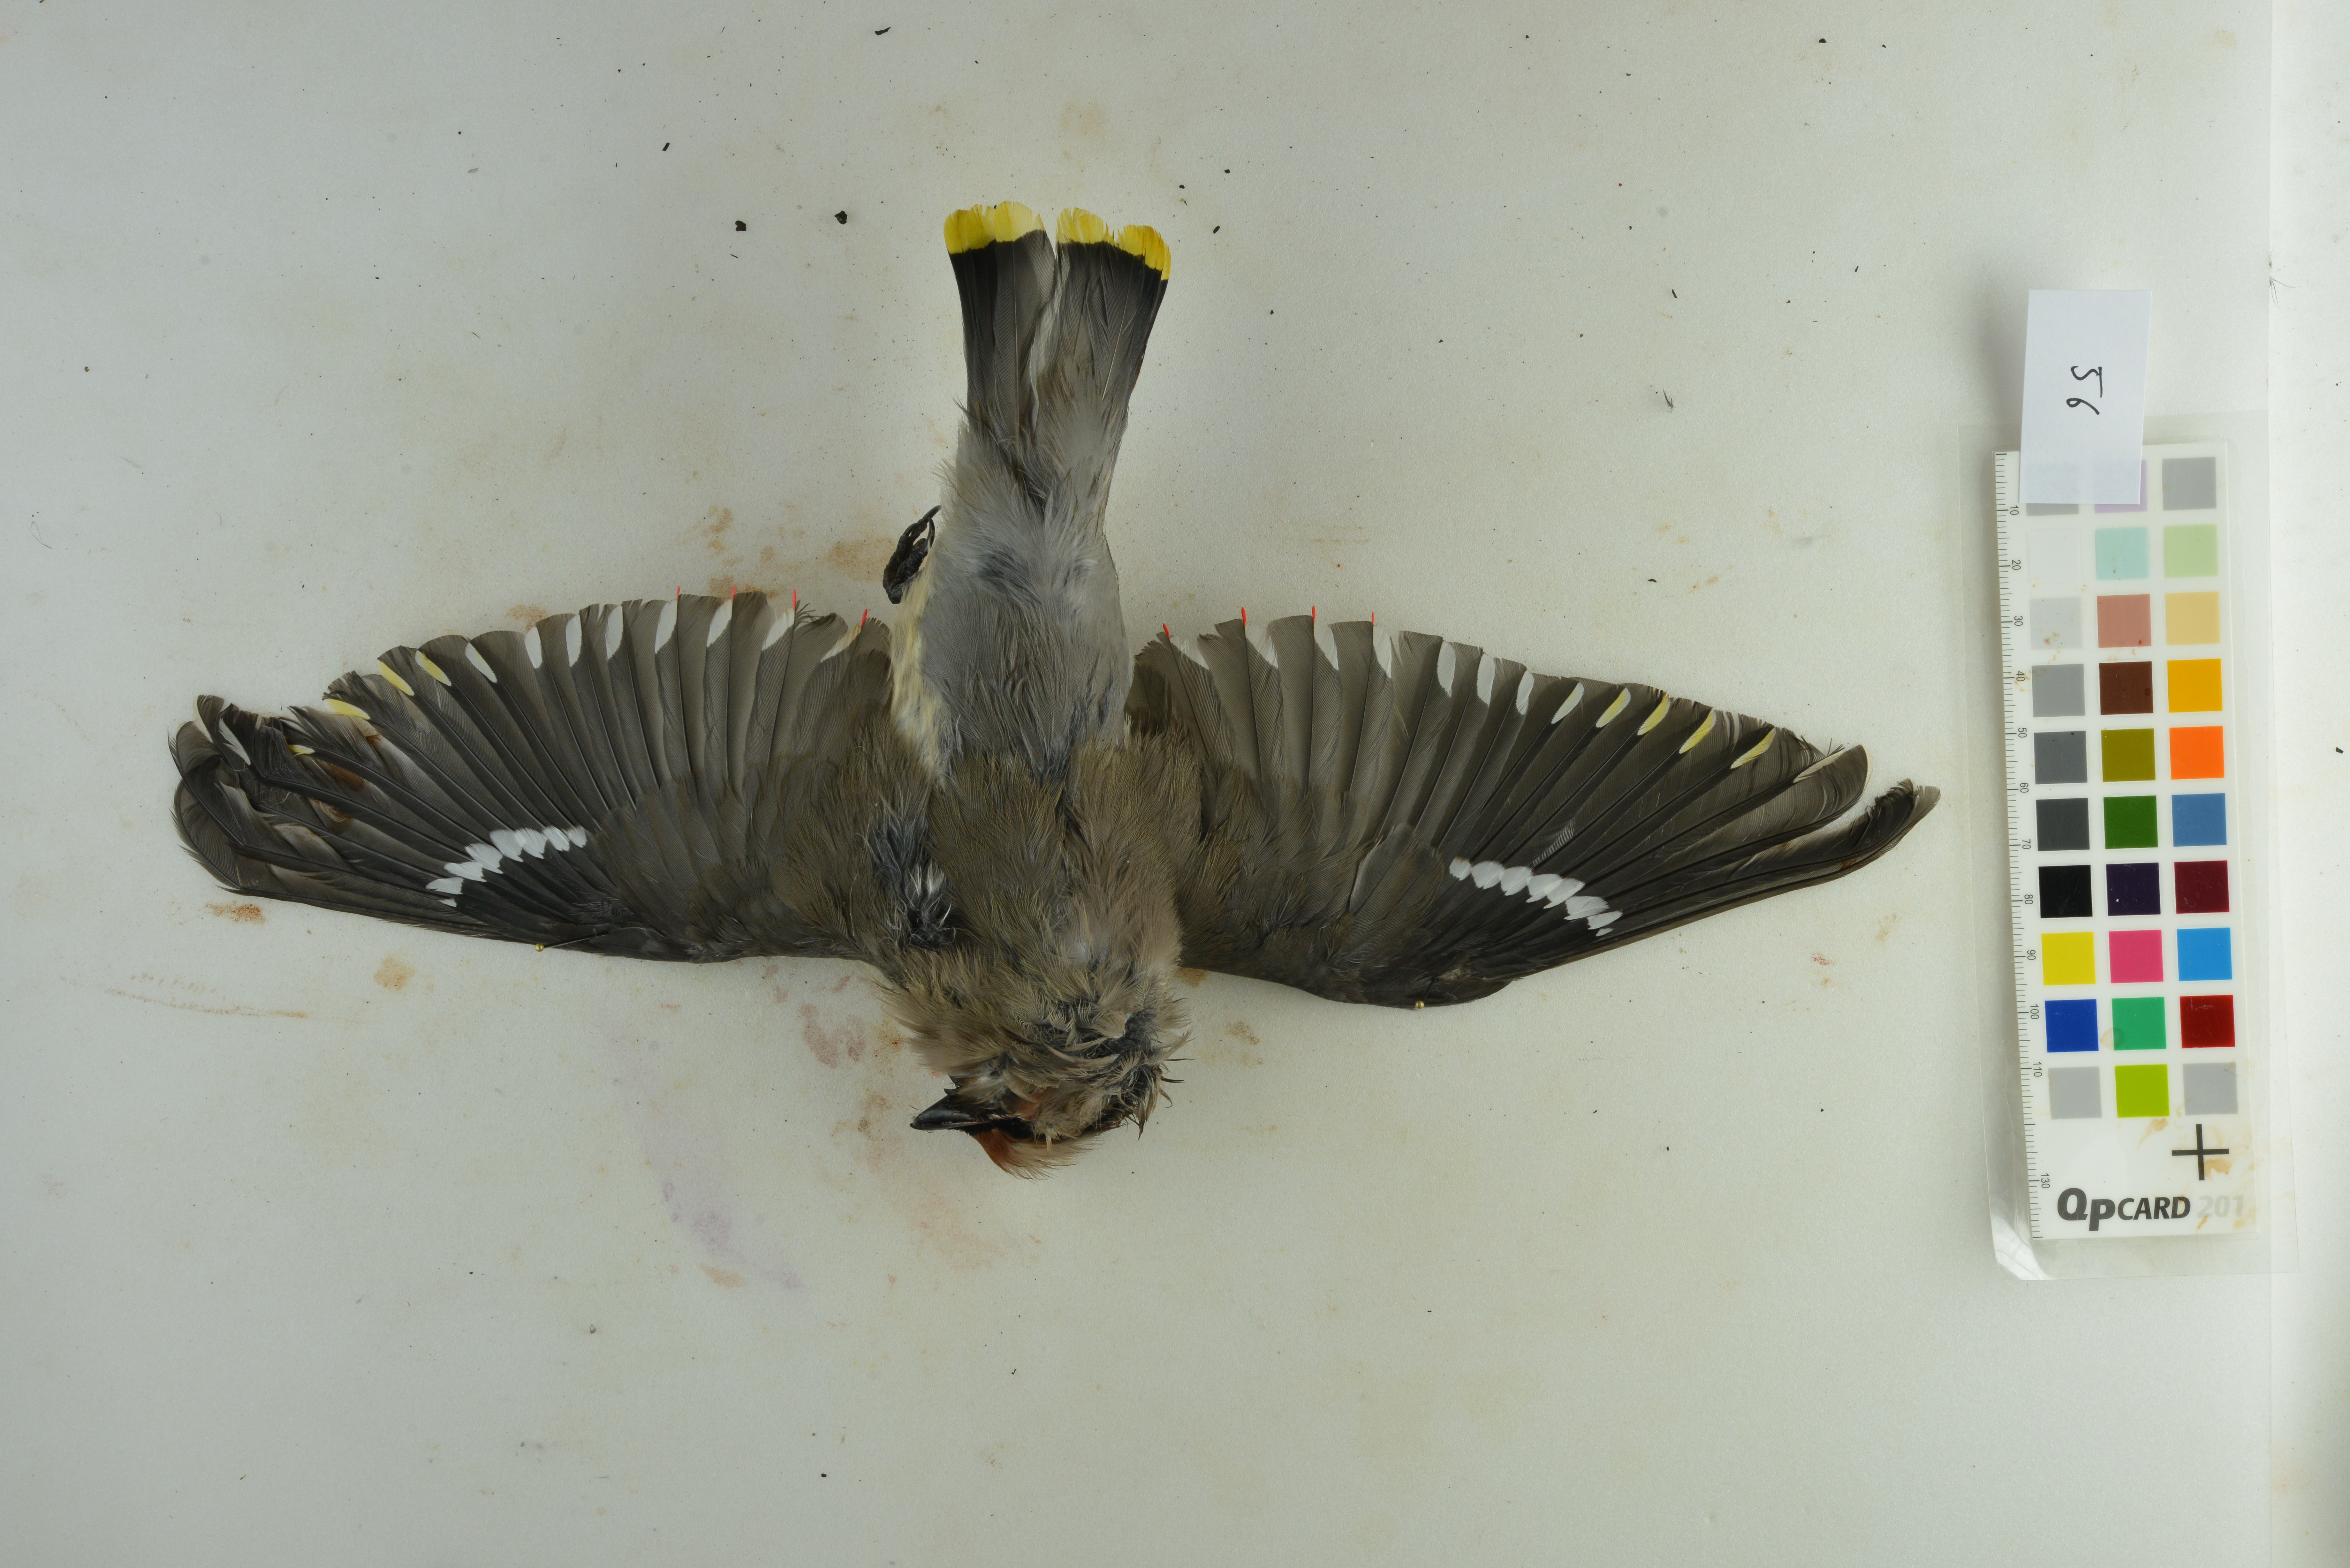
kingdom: Animalia
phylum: Chordata
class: Aves
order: Passeriformes
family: Bombycillidae
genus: Bombycilla
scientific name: Bombycilla garrulus
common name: Bohemian waxwing
